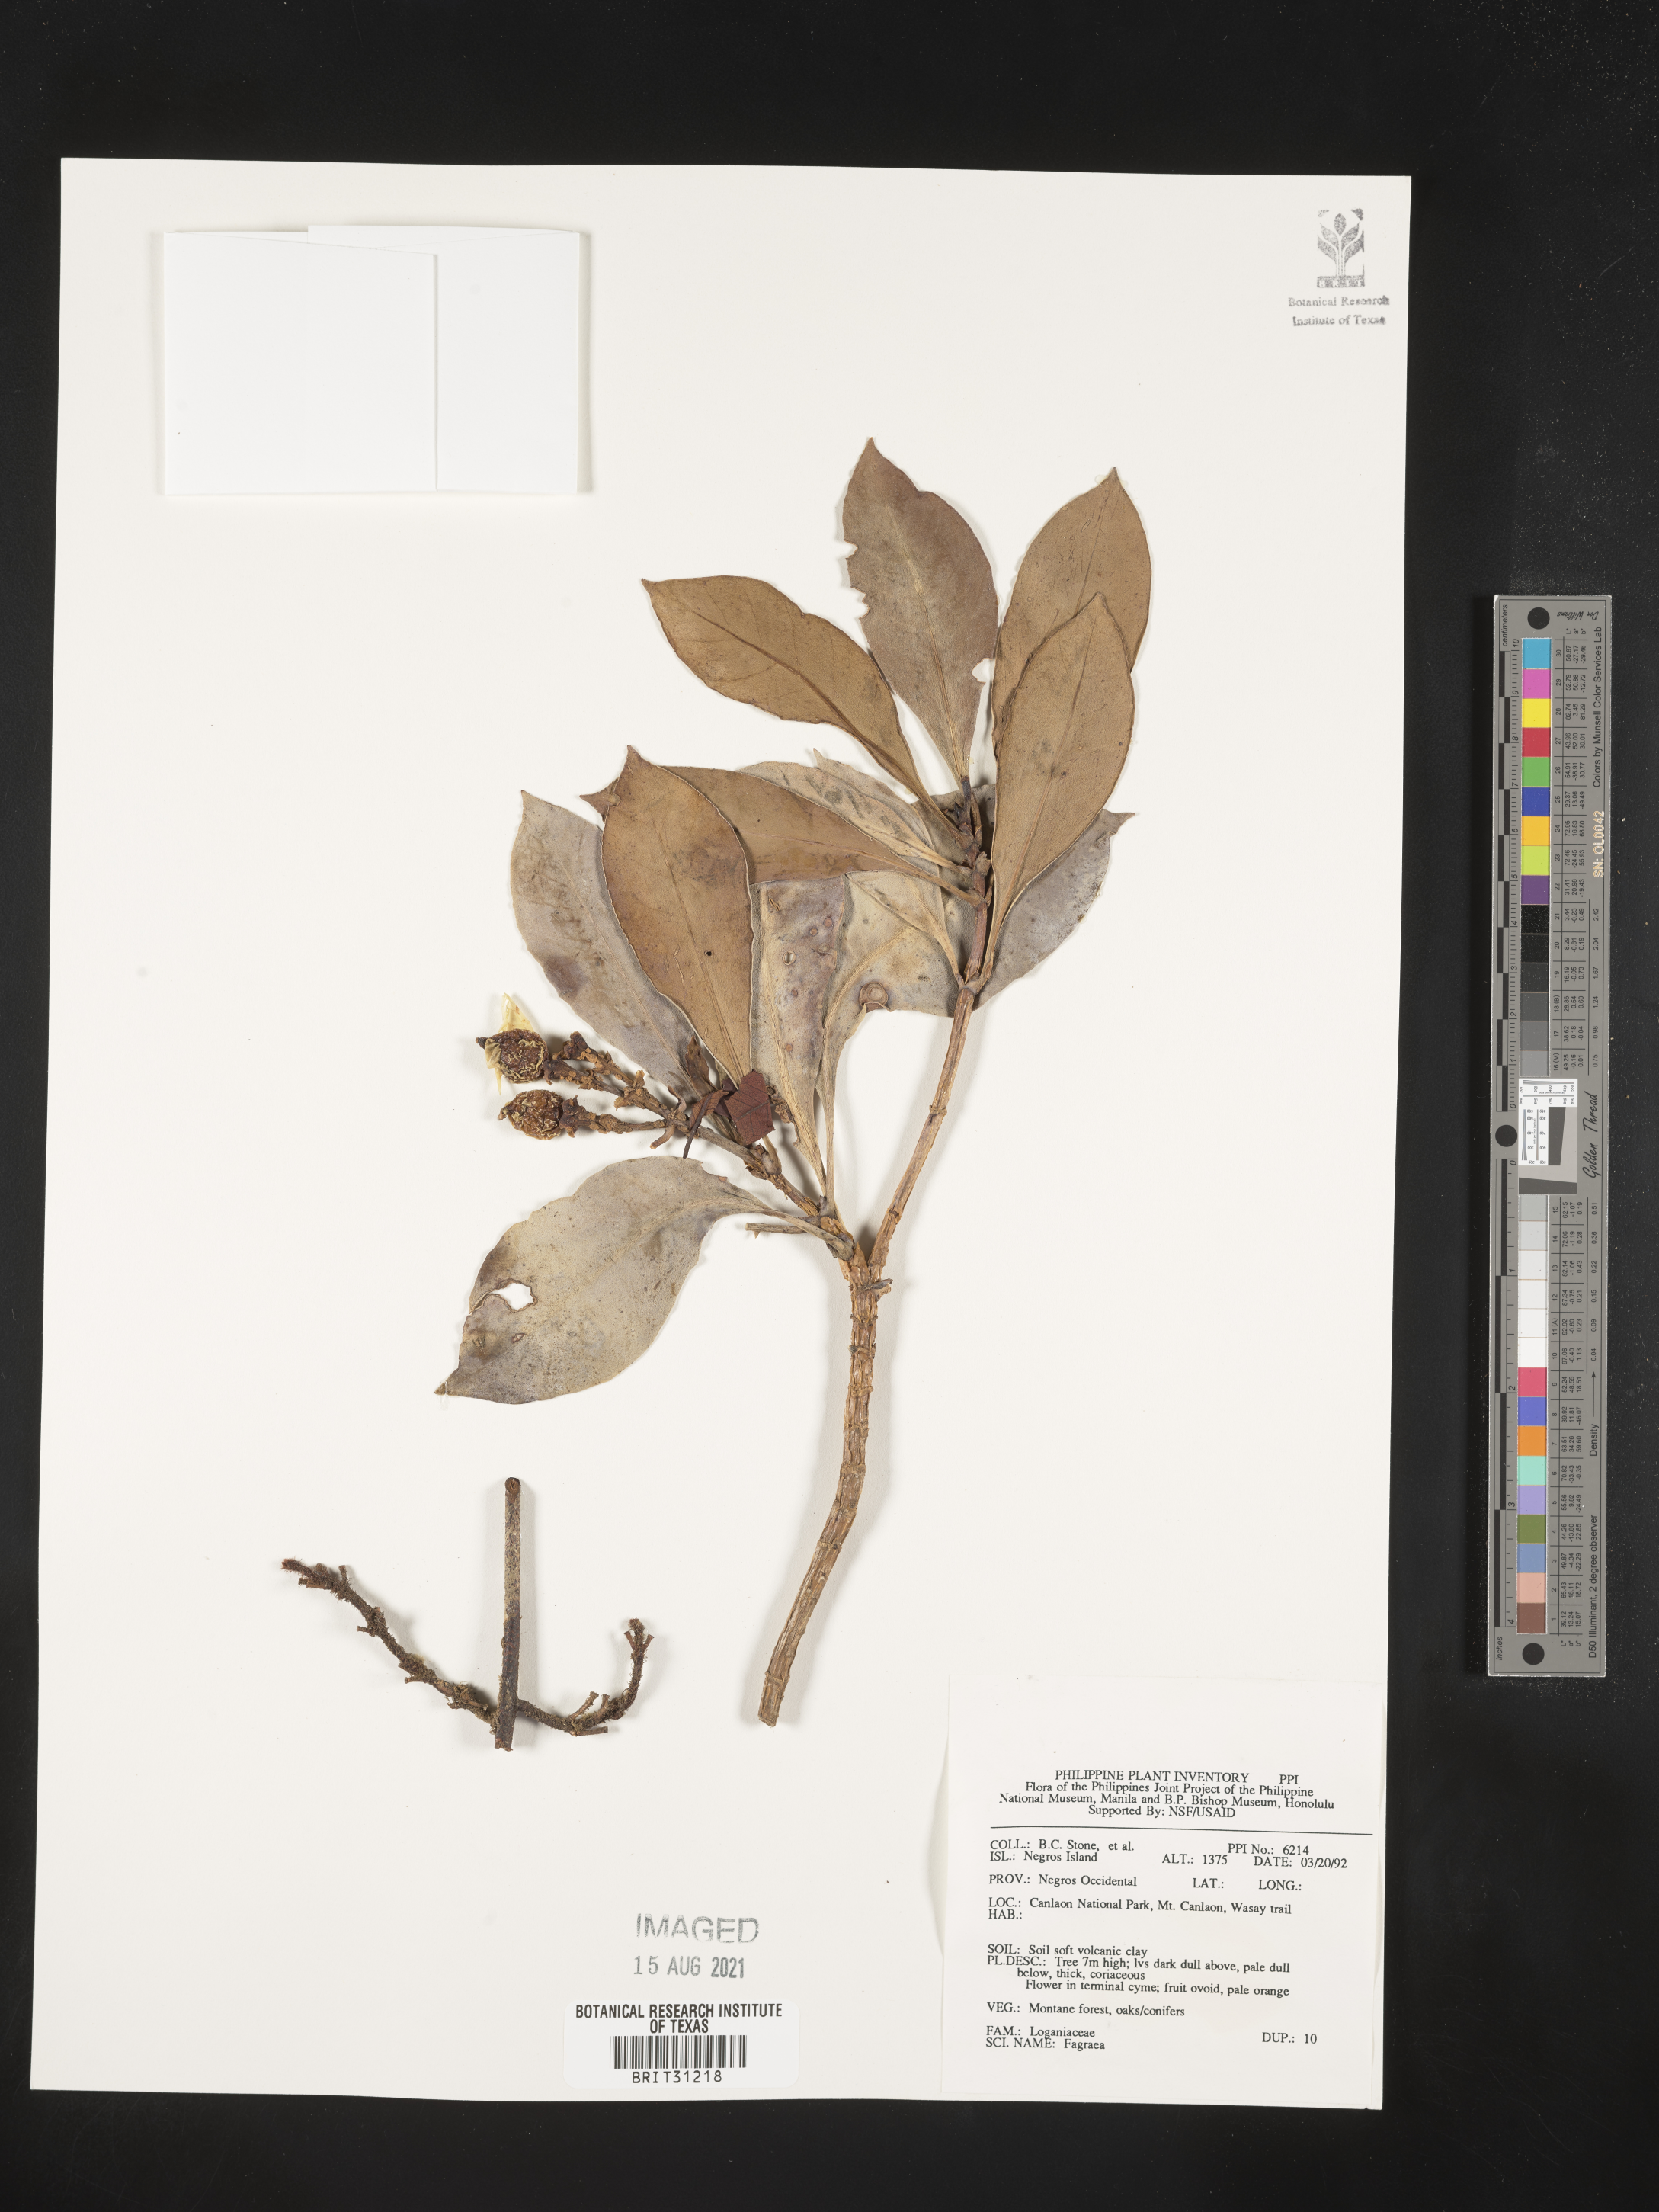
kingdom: Plantae
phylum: Tracheophyta
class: Magnoliopsida
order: Gentianales
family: Gentianaceae
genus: Fagraea
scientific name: Fagraea
